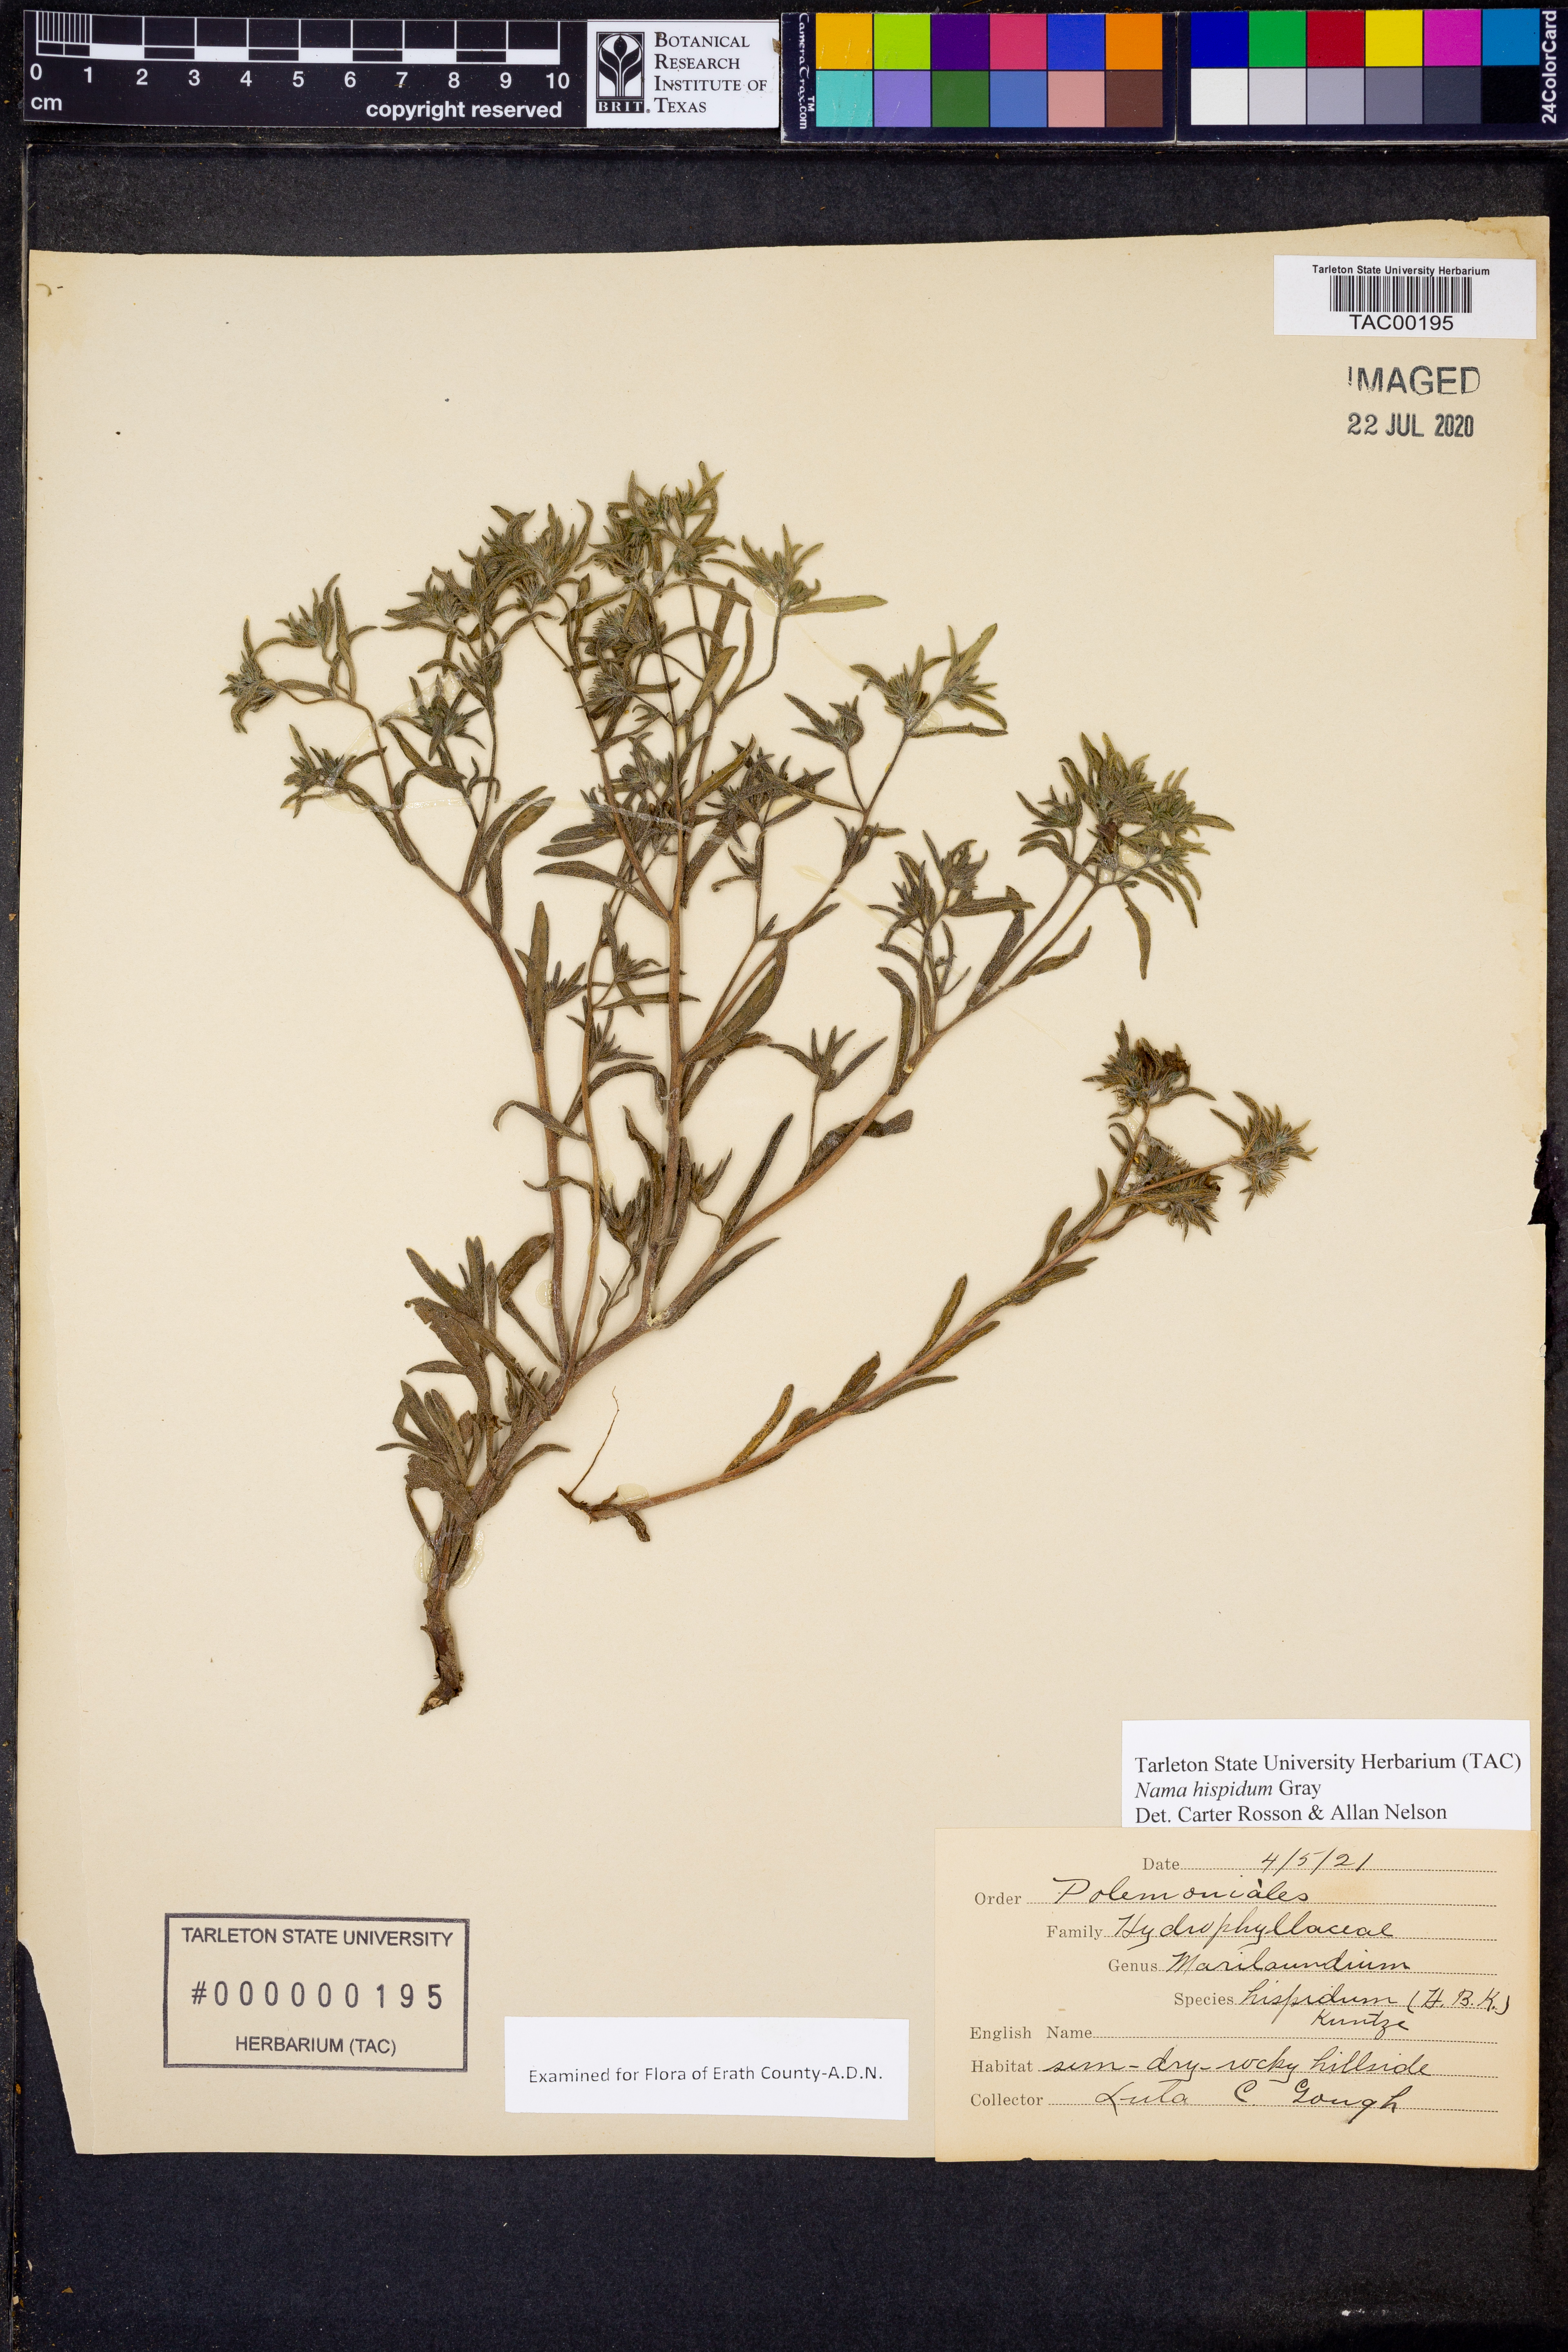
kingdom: Plantae
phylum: Tracheophyta
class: Magnoliopsida
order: Boraginales
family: Namaceae
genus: Nama
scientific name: Nama hispida
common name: Bristly nama
